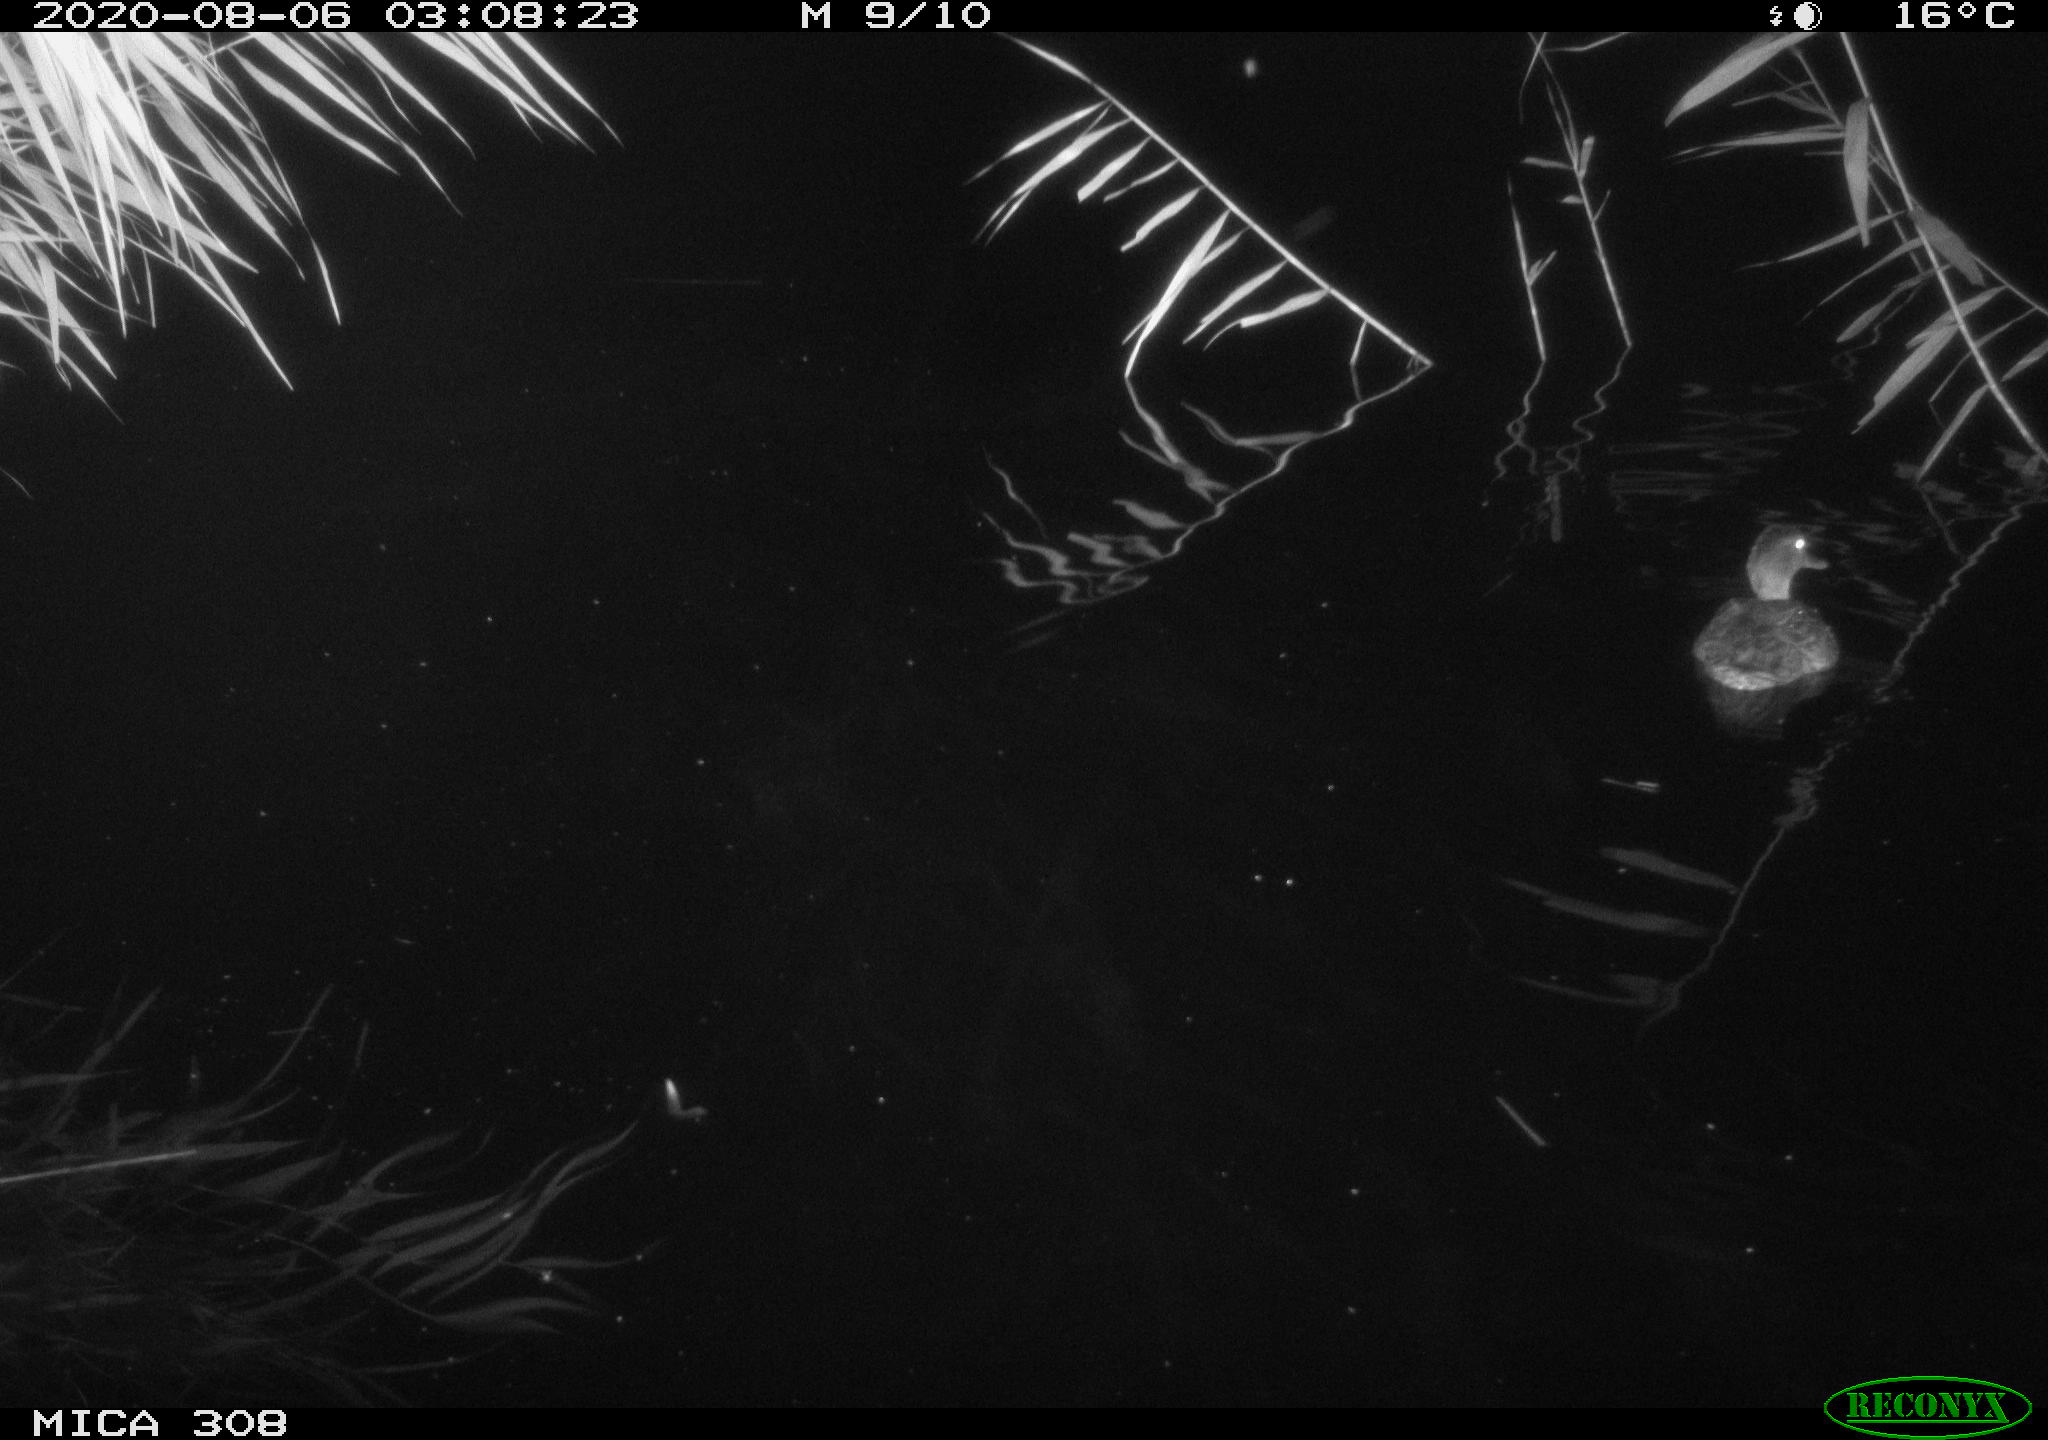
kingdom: Animalia
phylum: Chordata
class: Aves
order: Anseriformes
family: Anatidae
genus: Anas
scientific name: Anas platyrhynchos
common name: Mallard
